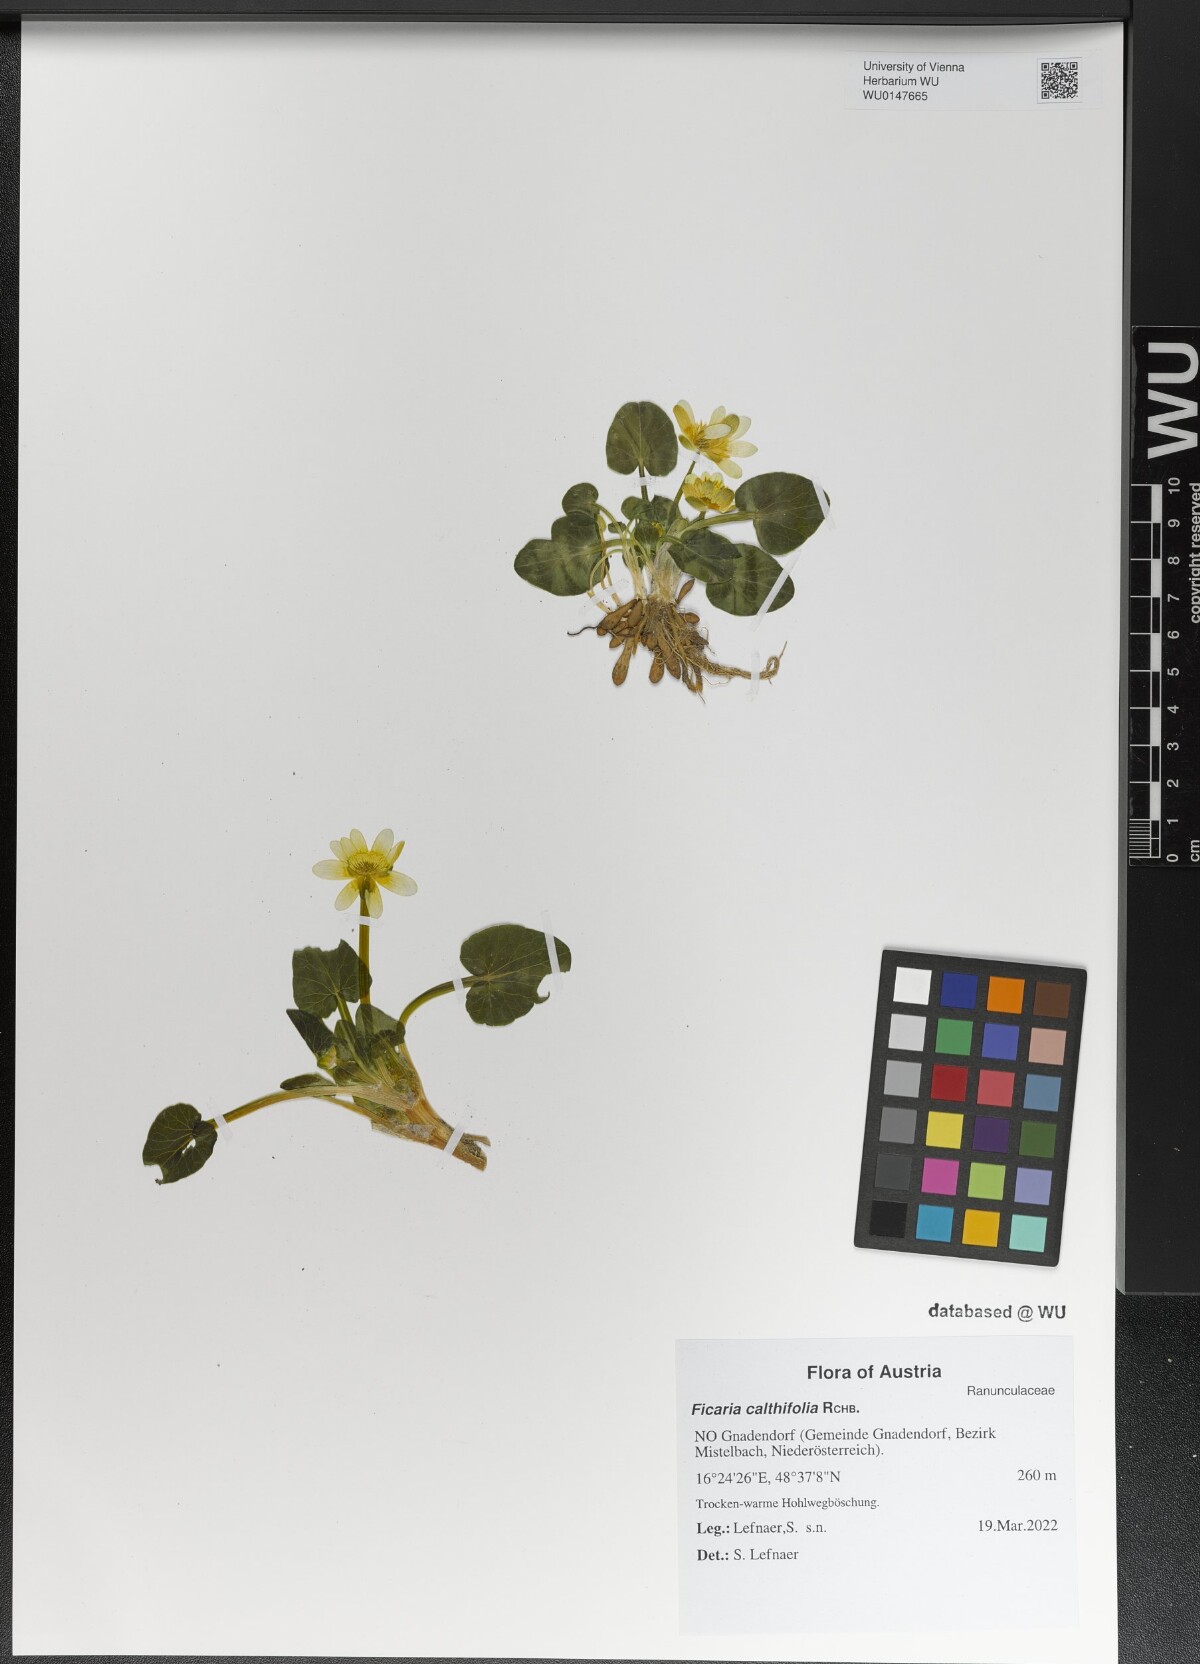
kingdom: Plantae
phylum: Tracheophyta
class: Magnoliopsida
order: Ranunculales
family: Ranunculaceae
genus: Ficaria
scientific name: Ficaria calthifolia
